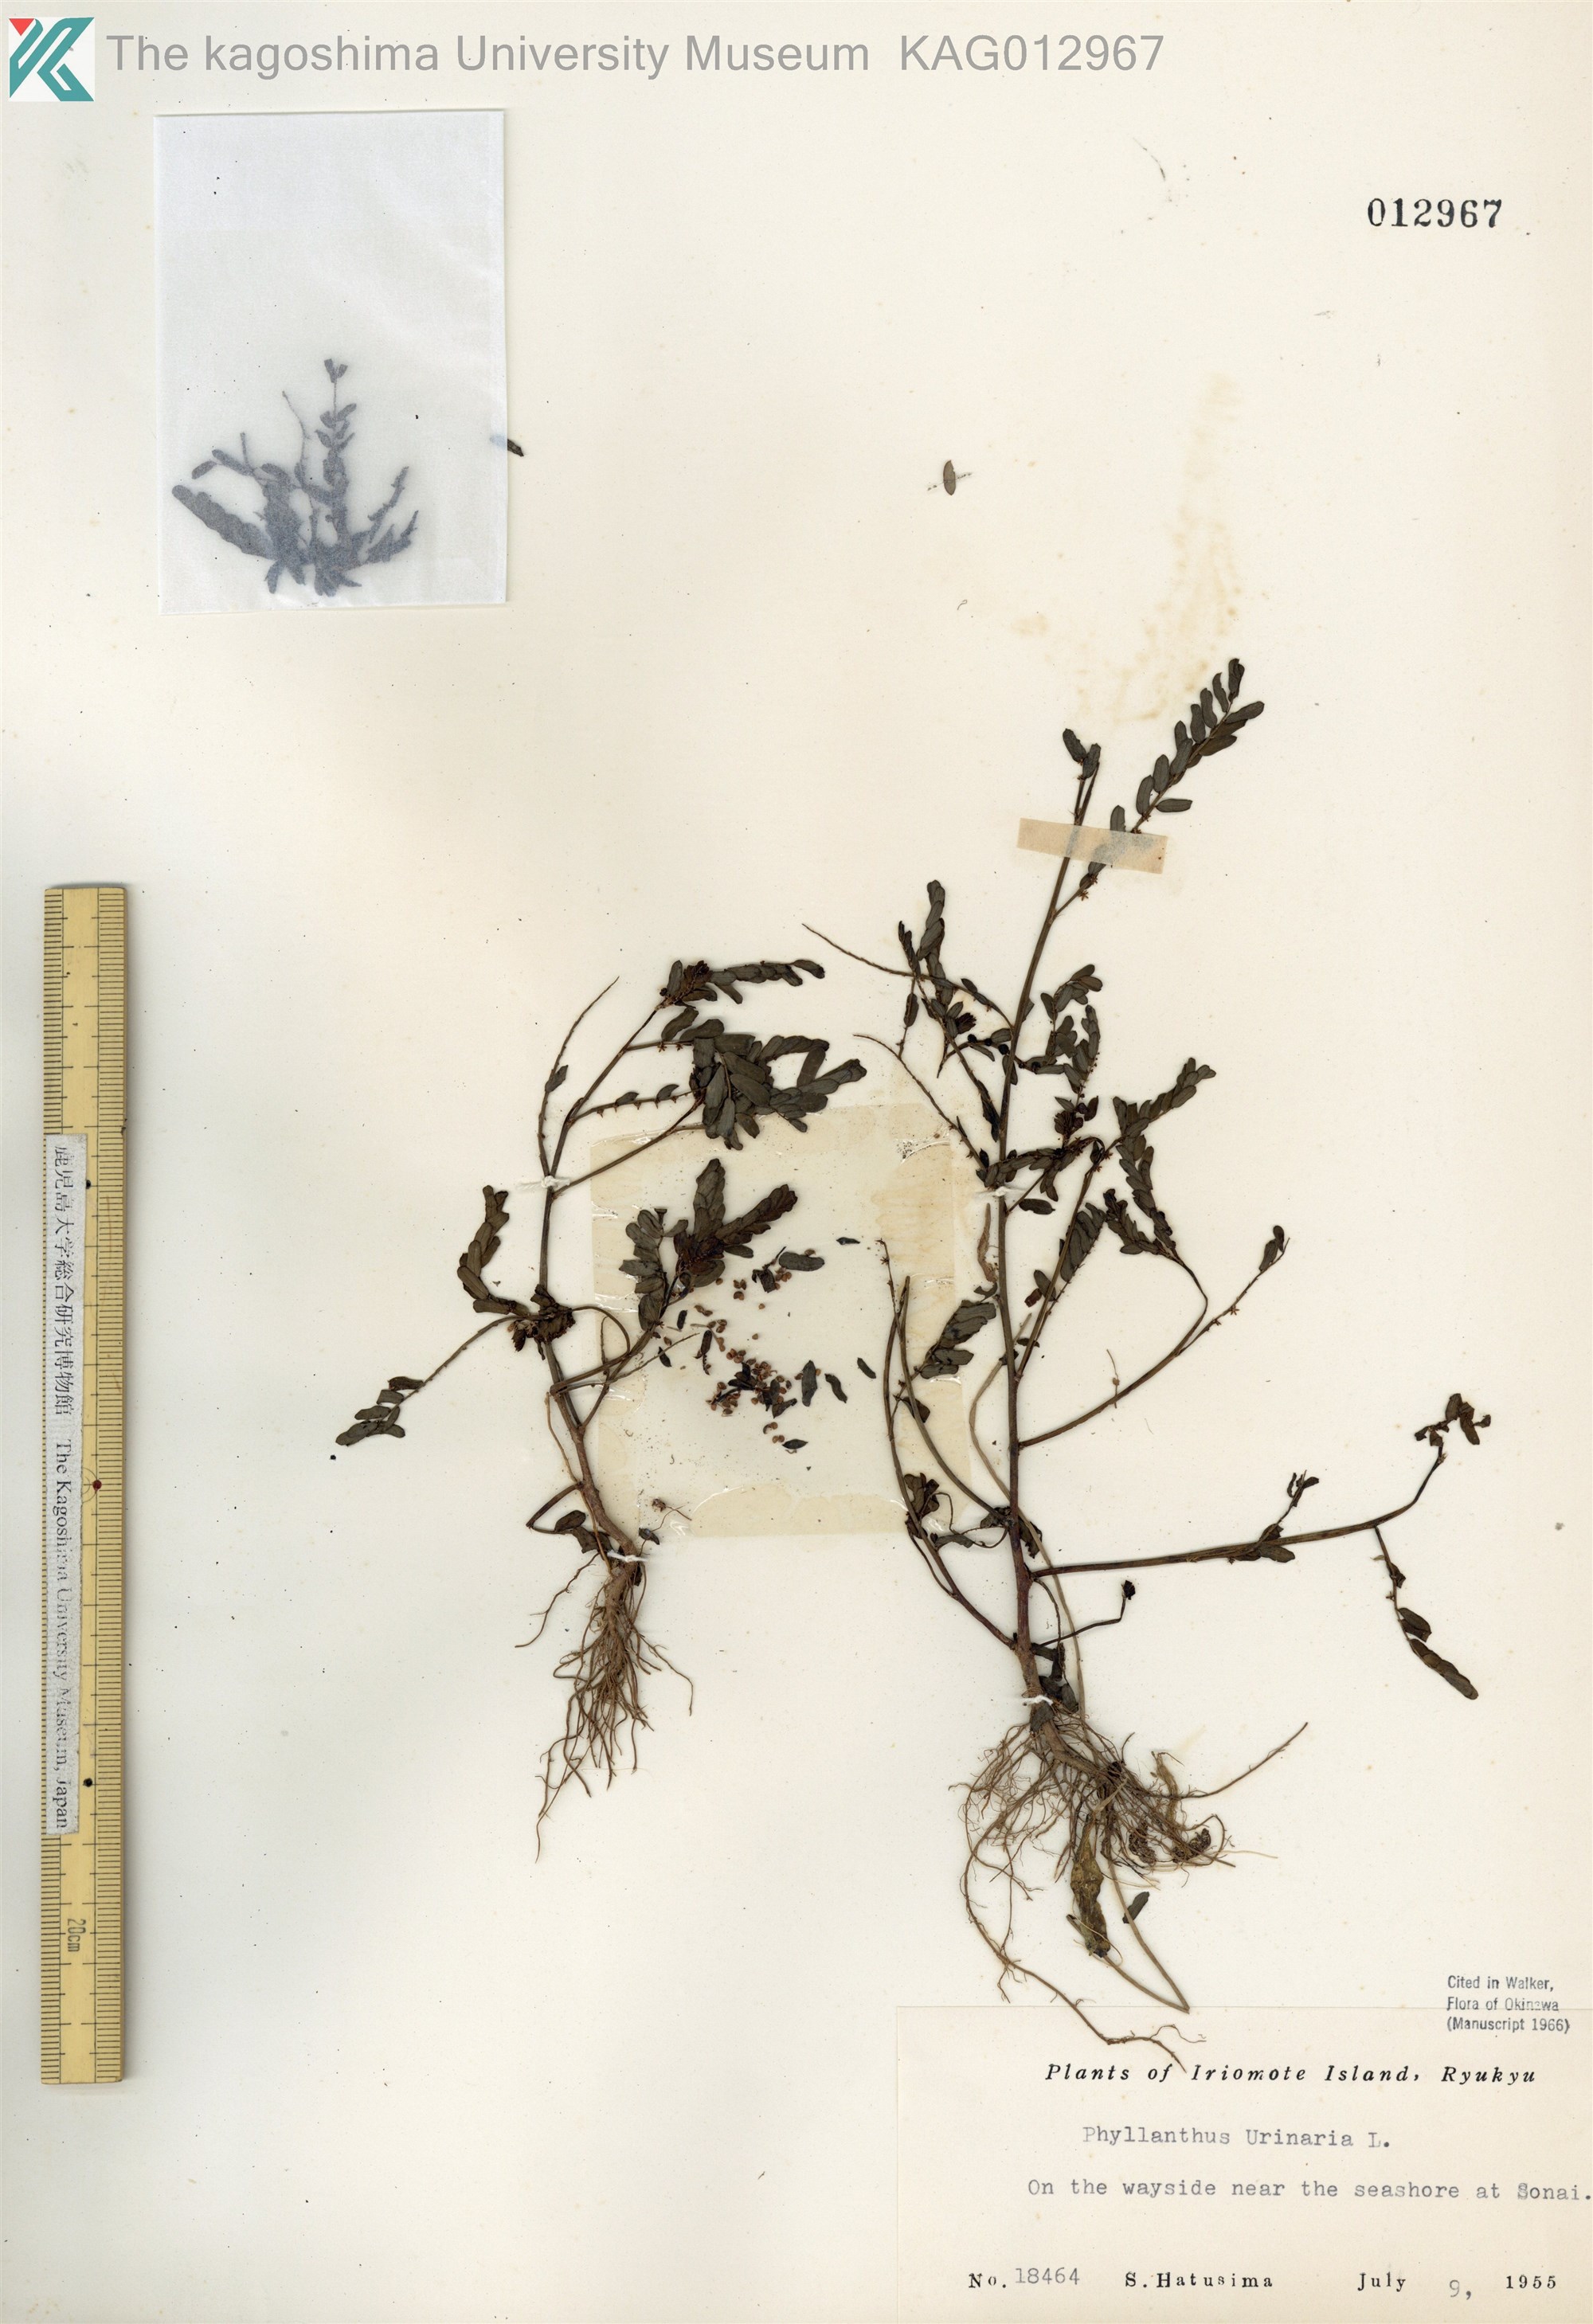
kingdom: Plantae
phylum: Tracheophyta
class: Magnoliopsida
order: Malpighiales
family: Phyllanthaceae
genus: Phyllanthus
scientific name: Phyllanthus urinaria
